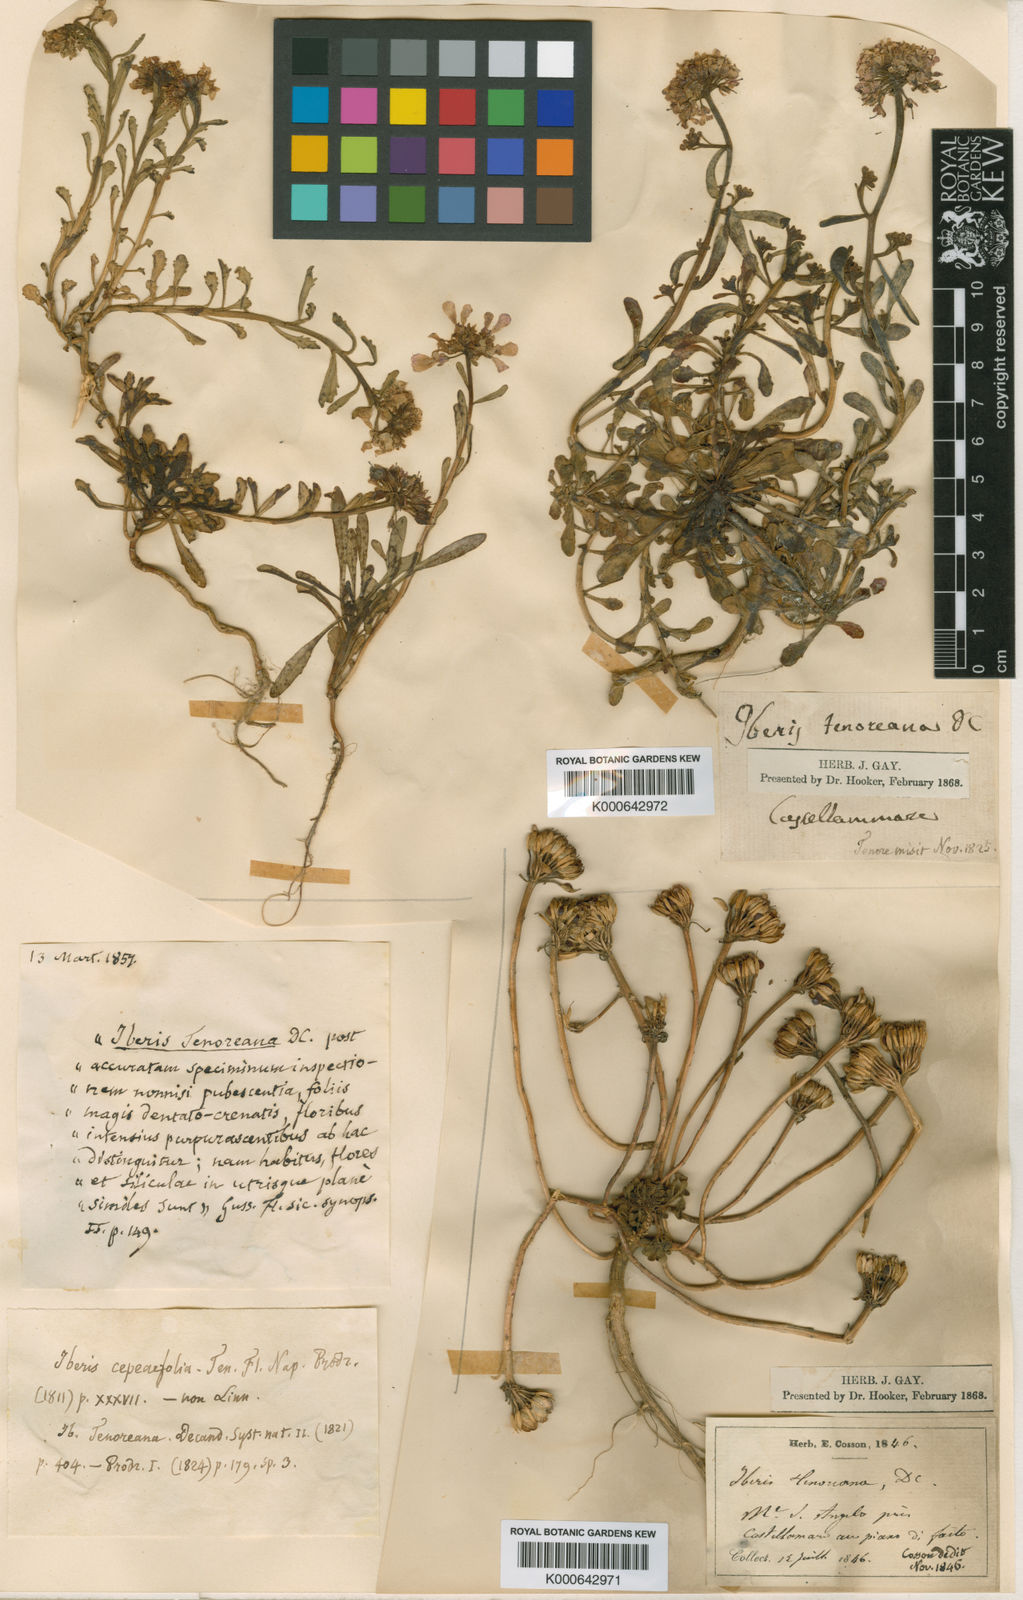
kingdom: Plantae
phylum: Tracheophyta
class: Magnoliopsida
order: Brassicales
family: Brassicaceae
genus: Iberis
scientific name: Iberis carnosa
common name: Pruit's candytuft
